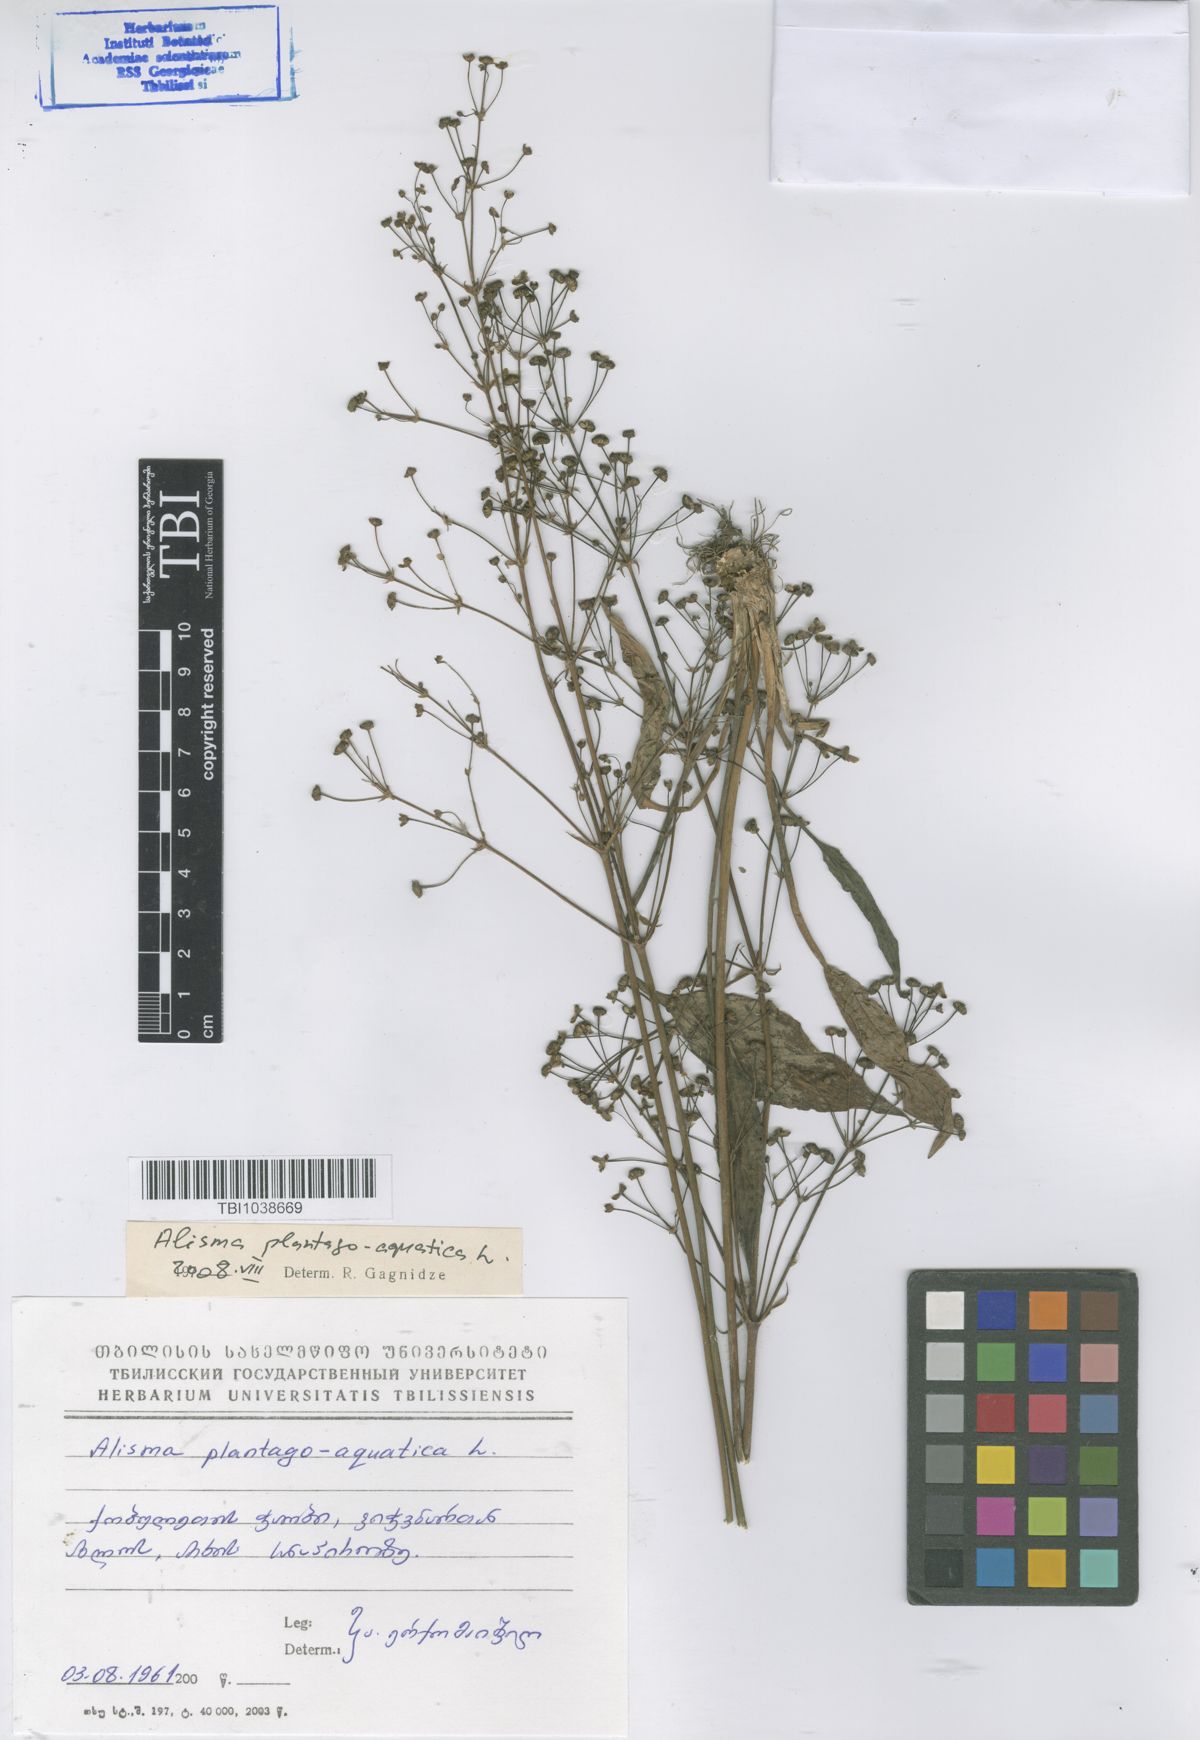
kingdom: Plantae
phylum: Tracheophyta
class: Liliopsida
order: Alismatales
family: Alismataceae
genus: Alisma
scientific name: Alisma plantago-aquatica
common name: Water-plantain
